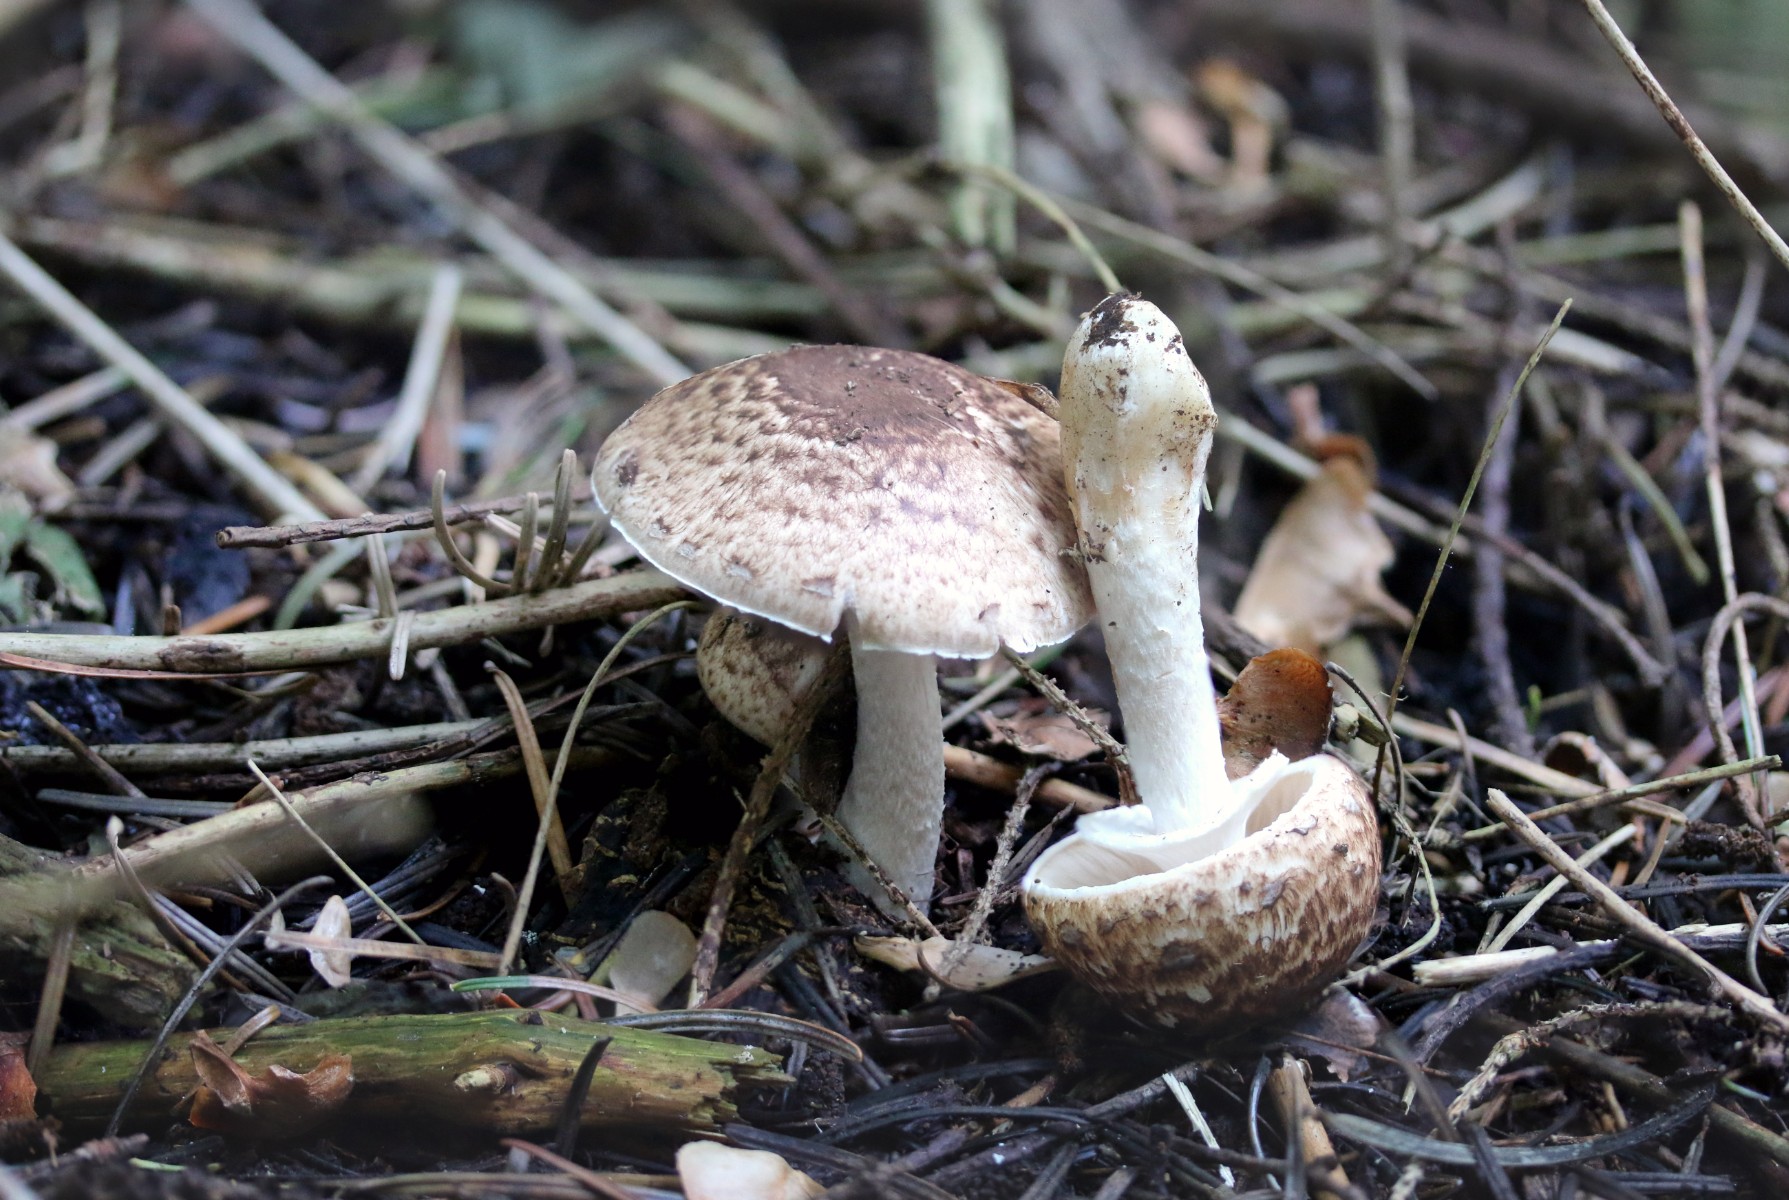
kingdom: Fungi
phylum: Basidiomycota
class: Agaricomycetes
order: Agaricales
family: Agaricaceae
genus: Agaricus
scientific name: Agaricus impudicus
